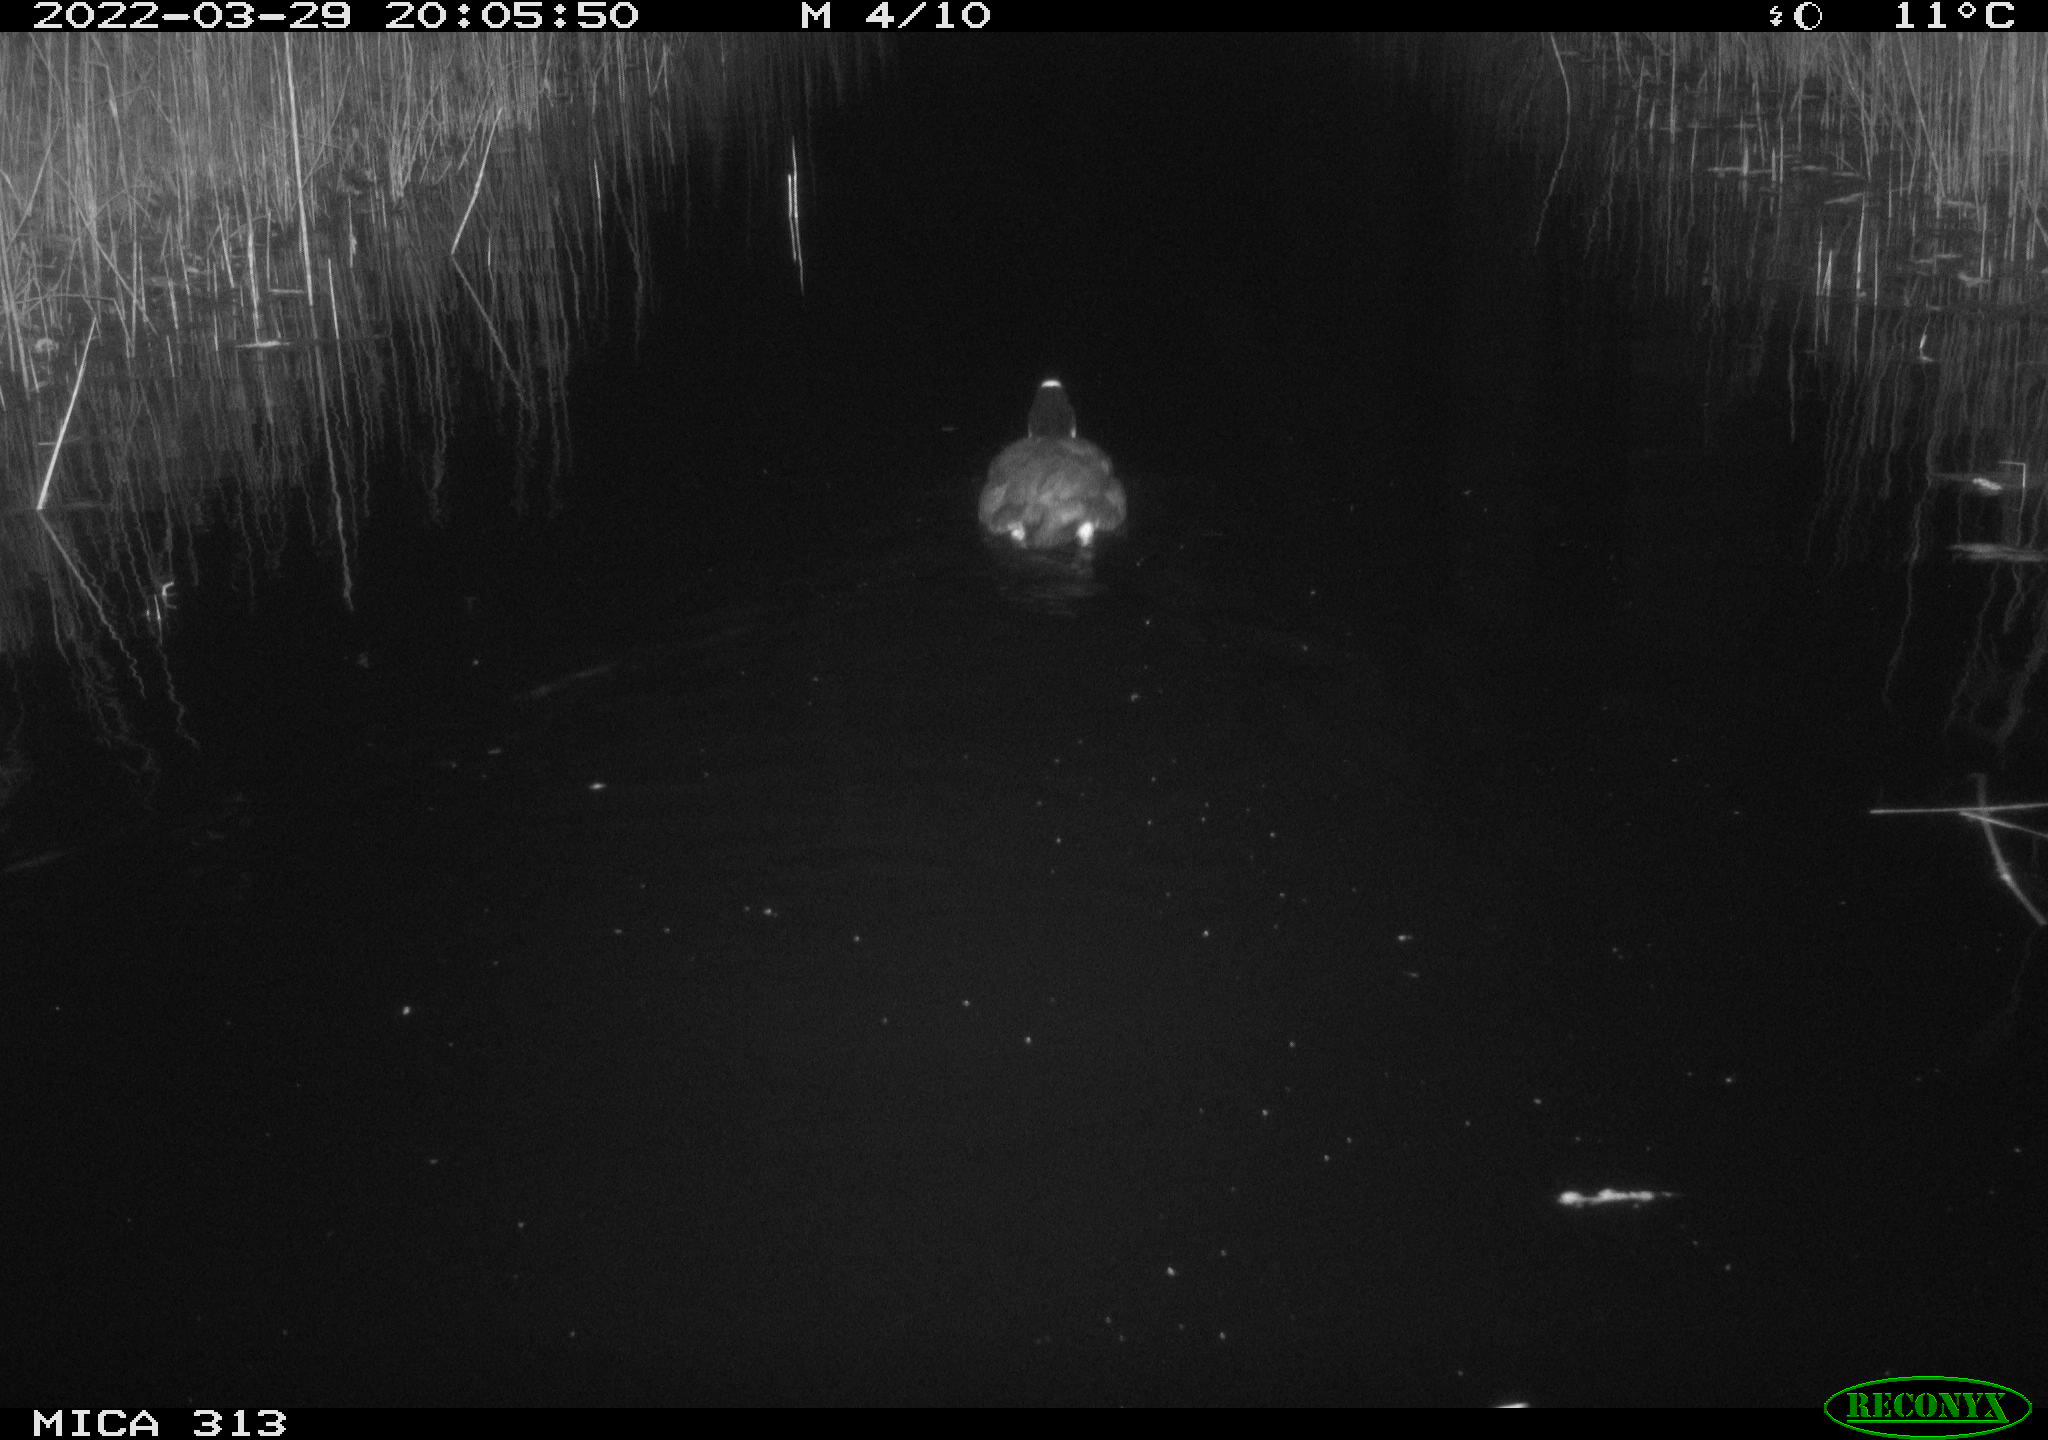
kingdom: Animalia
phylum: Chordata
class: Aves
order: Gruiformes
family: Rallidae
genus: Fulica
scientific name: Fulica atra
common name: Eurasian coot
